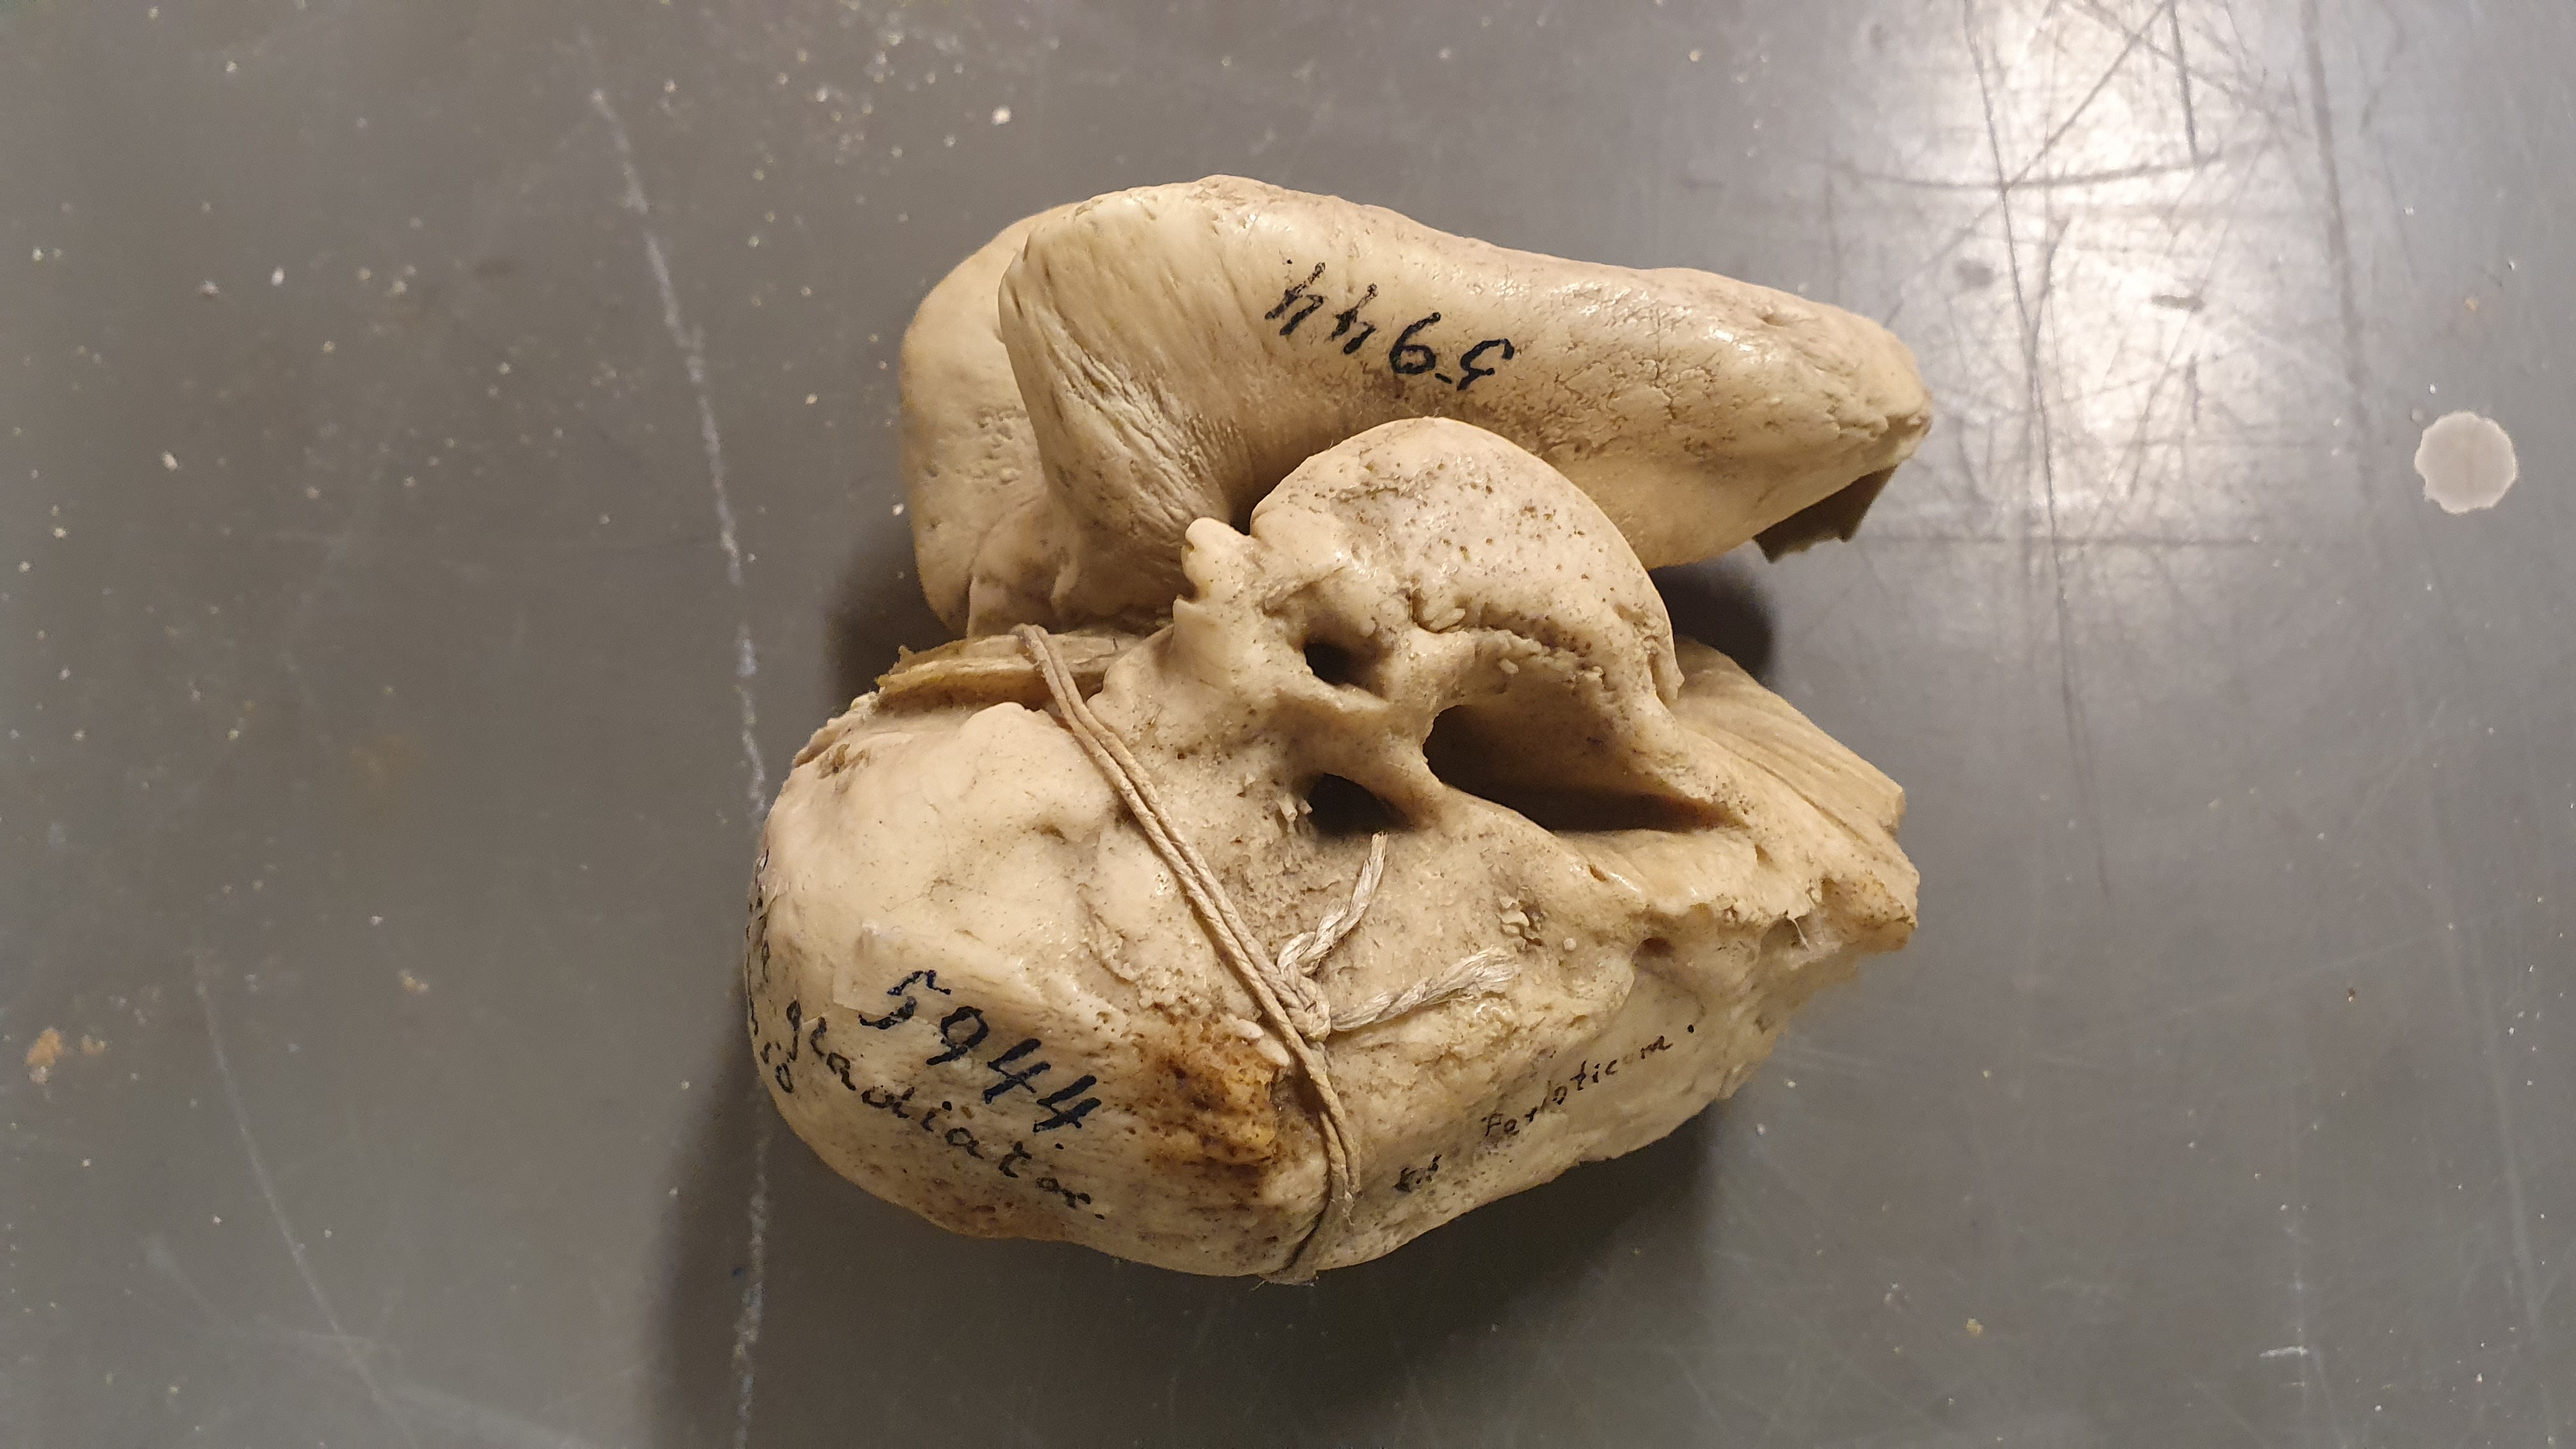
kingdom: Animalia
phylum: Chordata
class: Mammalia
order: Cetacea
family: Delphinidae
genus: Orcinus
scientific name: Orcinus orca
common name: Killer whale
